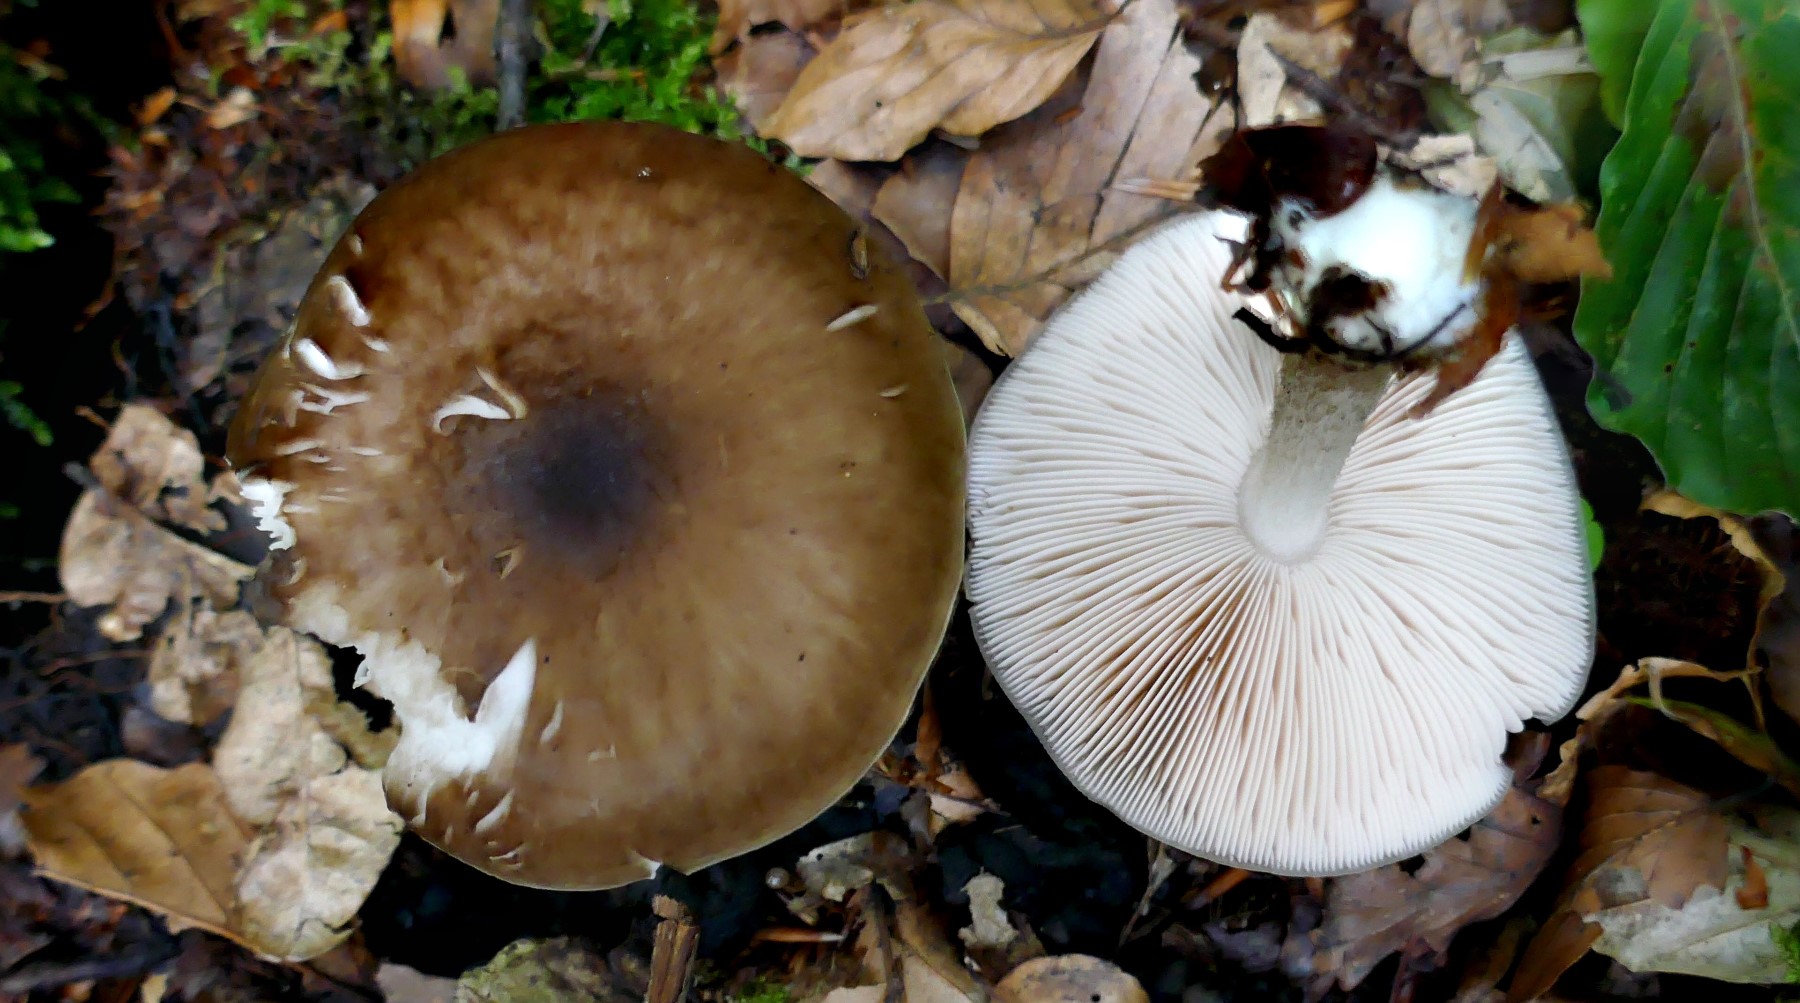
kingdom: Fungi
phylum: Basidiomycota
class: Agaricomycetes
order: Agaricales
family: Pluteaceae
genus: Pluteus
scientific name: Pluteus cervinus
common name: sodfarvet skærmhat
